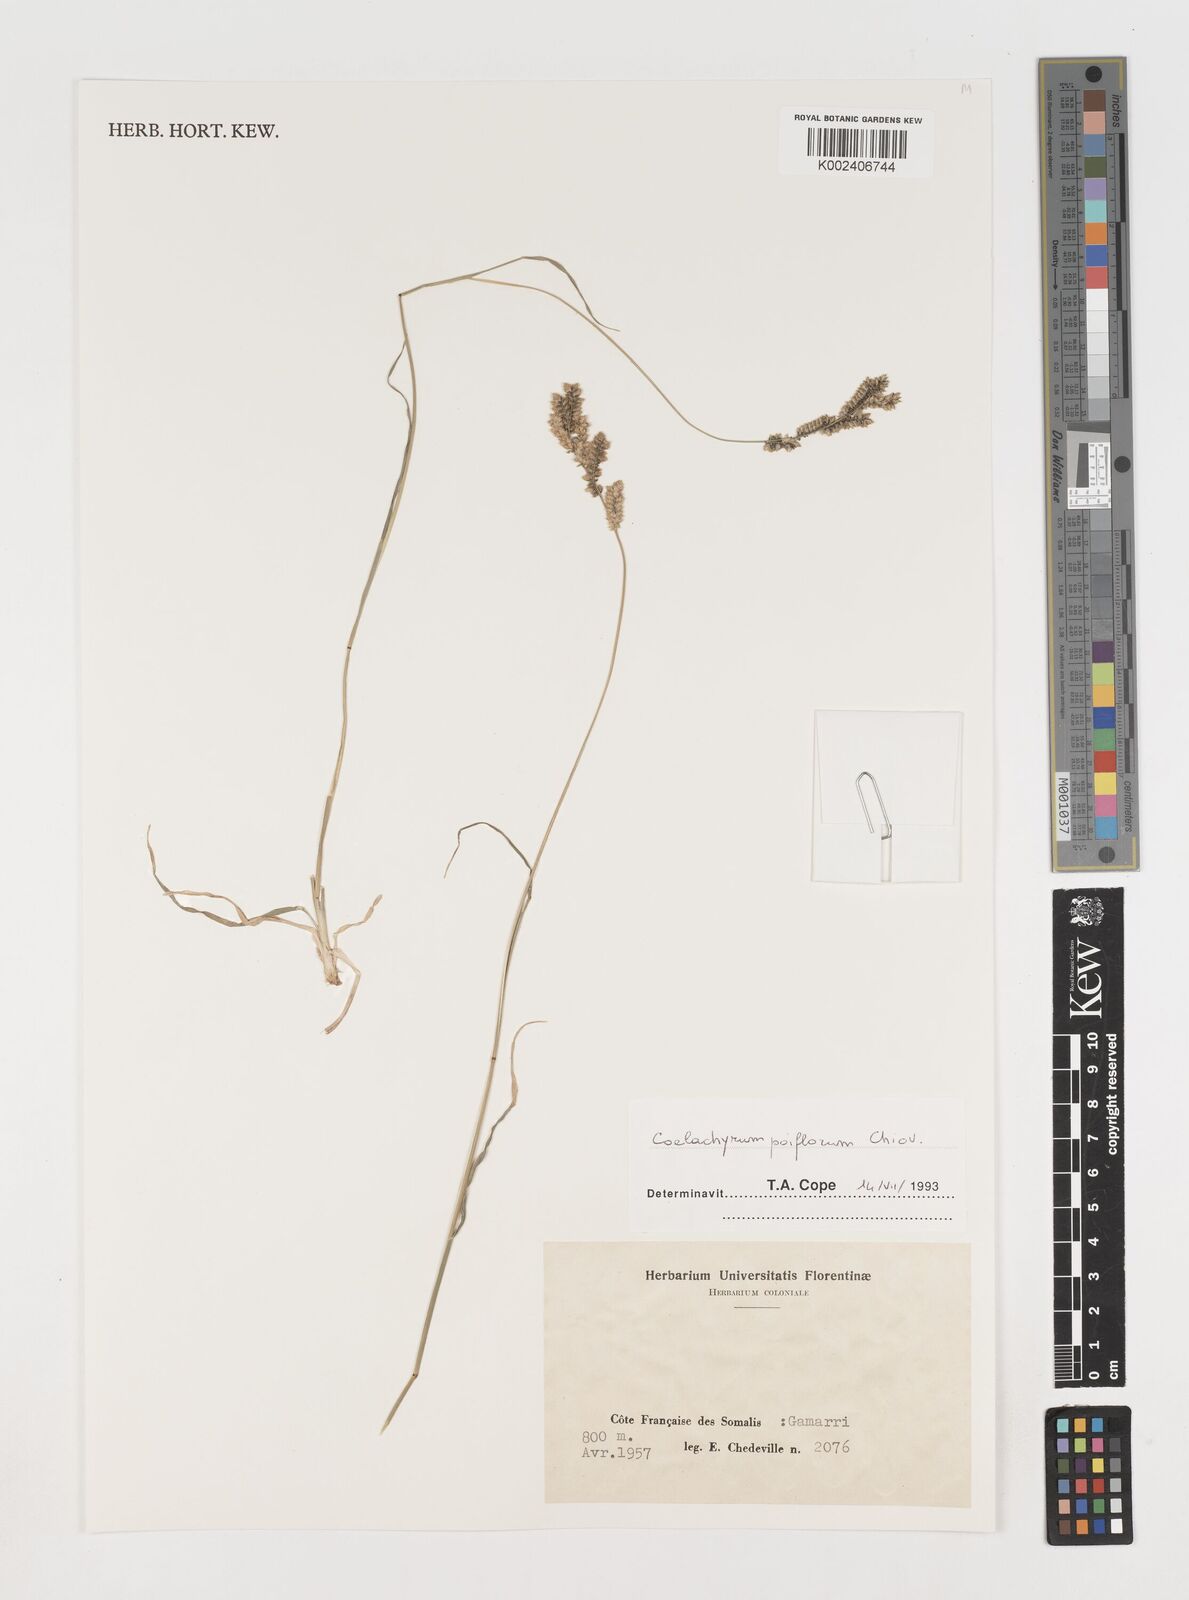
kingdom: Plantae
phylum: Tracheophyta
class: Liliopsida
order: Poales
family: Poaceae
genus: Coelachyrum
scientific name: Coelachyrum poiflorum
